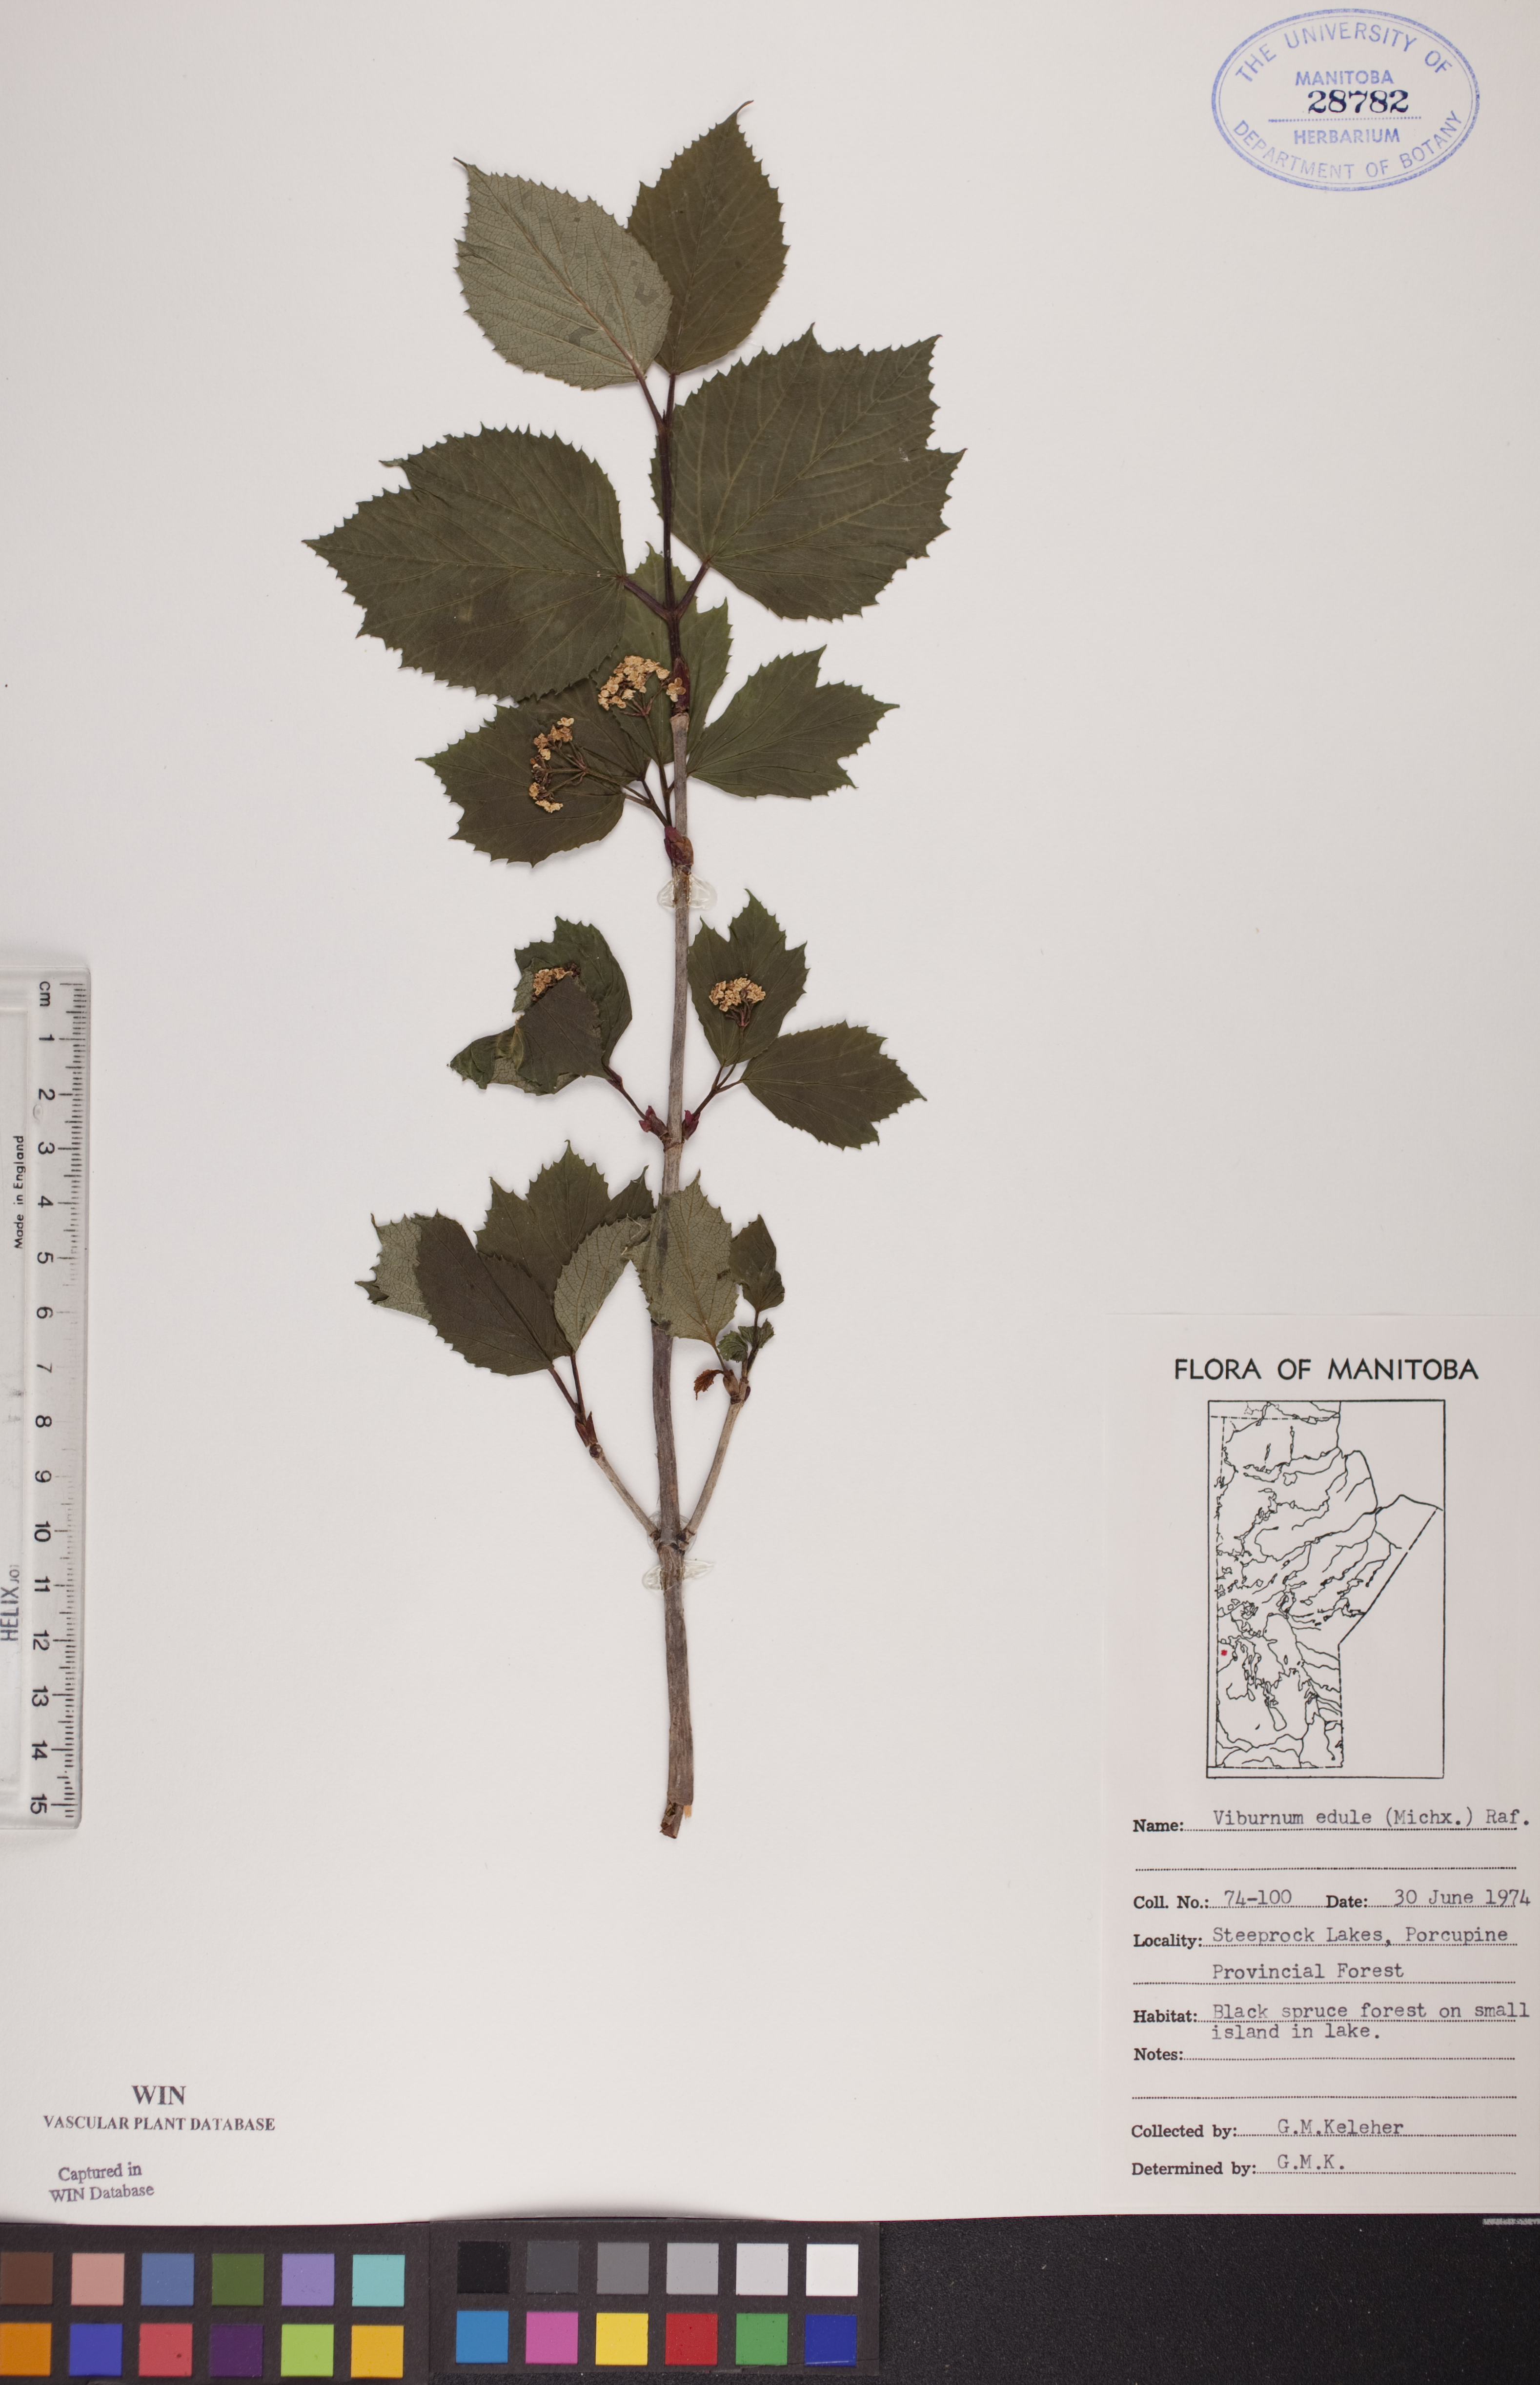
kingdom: Plantae
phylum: Tracheophyta
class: Magnoliopsida
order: Dipsacales
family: Viburnaceae
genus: Viburnum
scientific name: Viburnum edule
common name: Mooseberry
